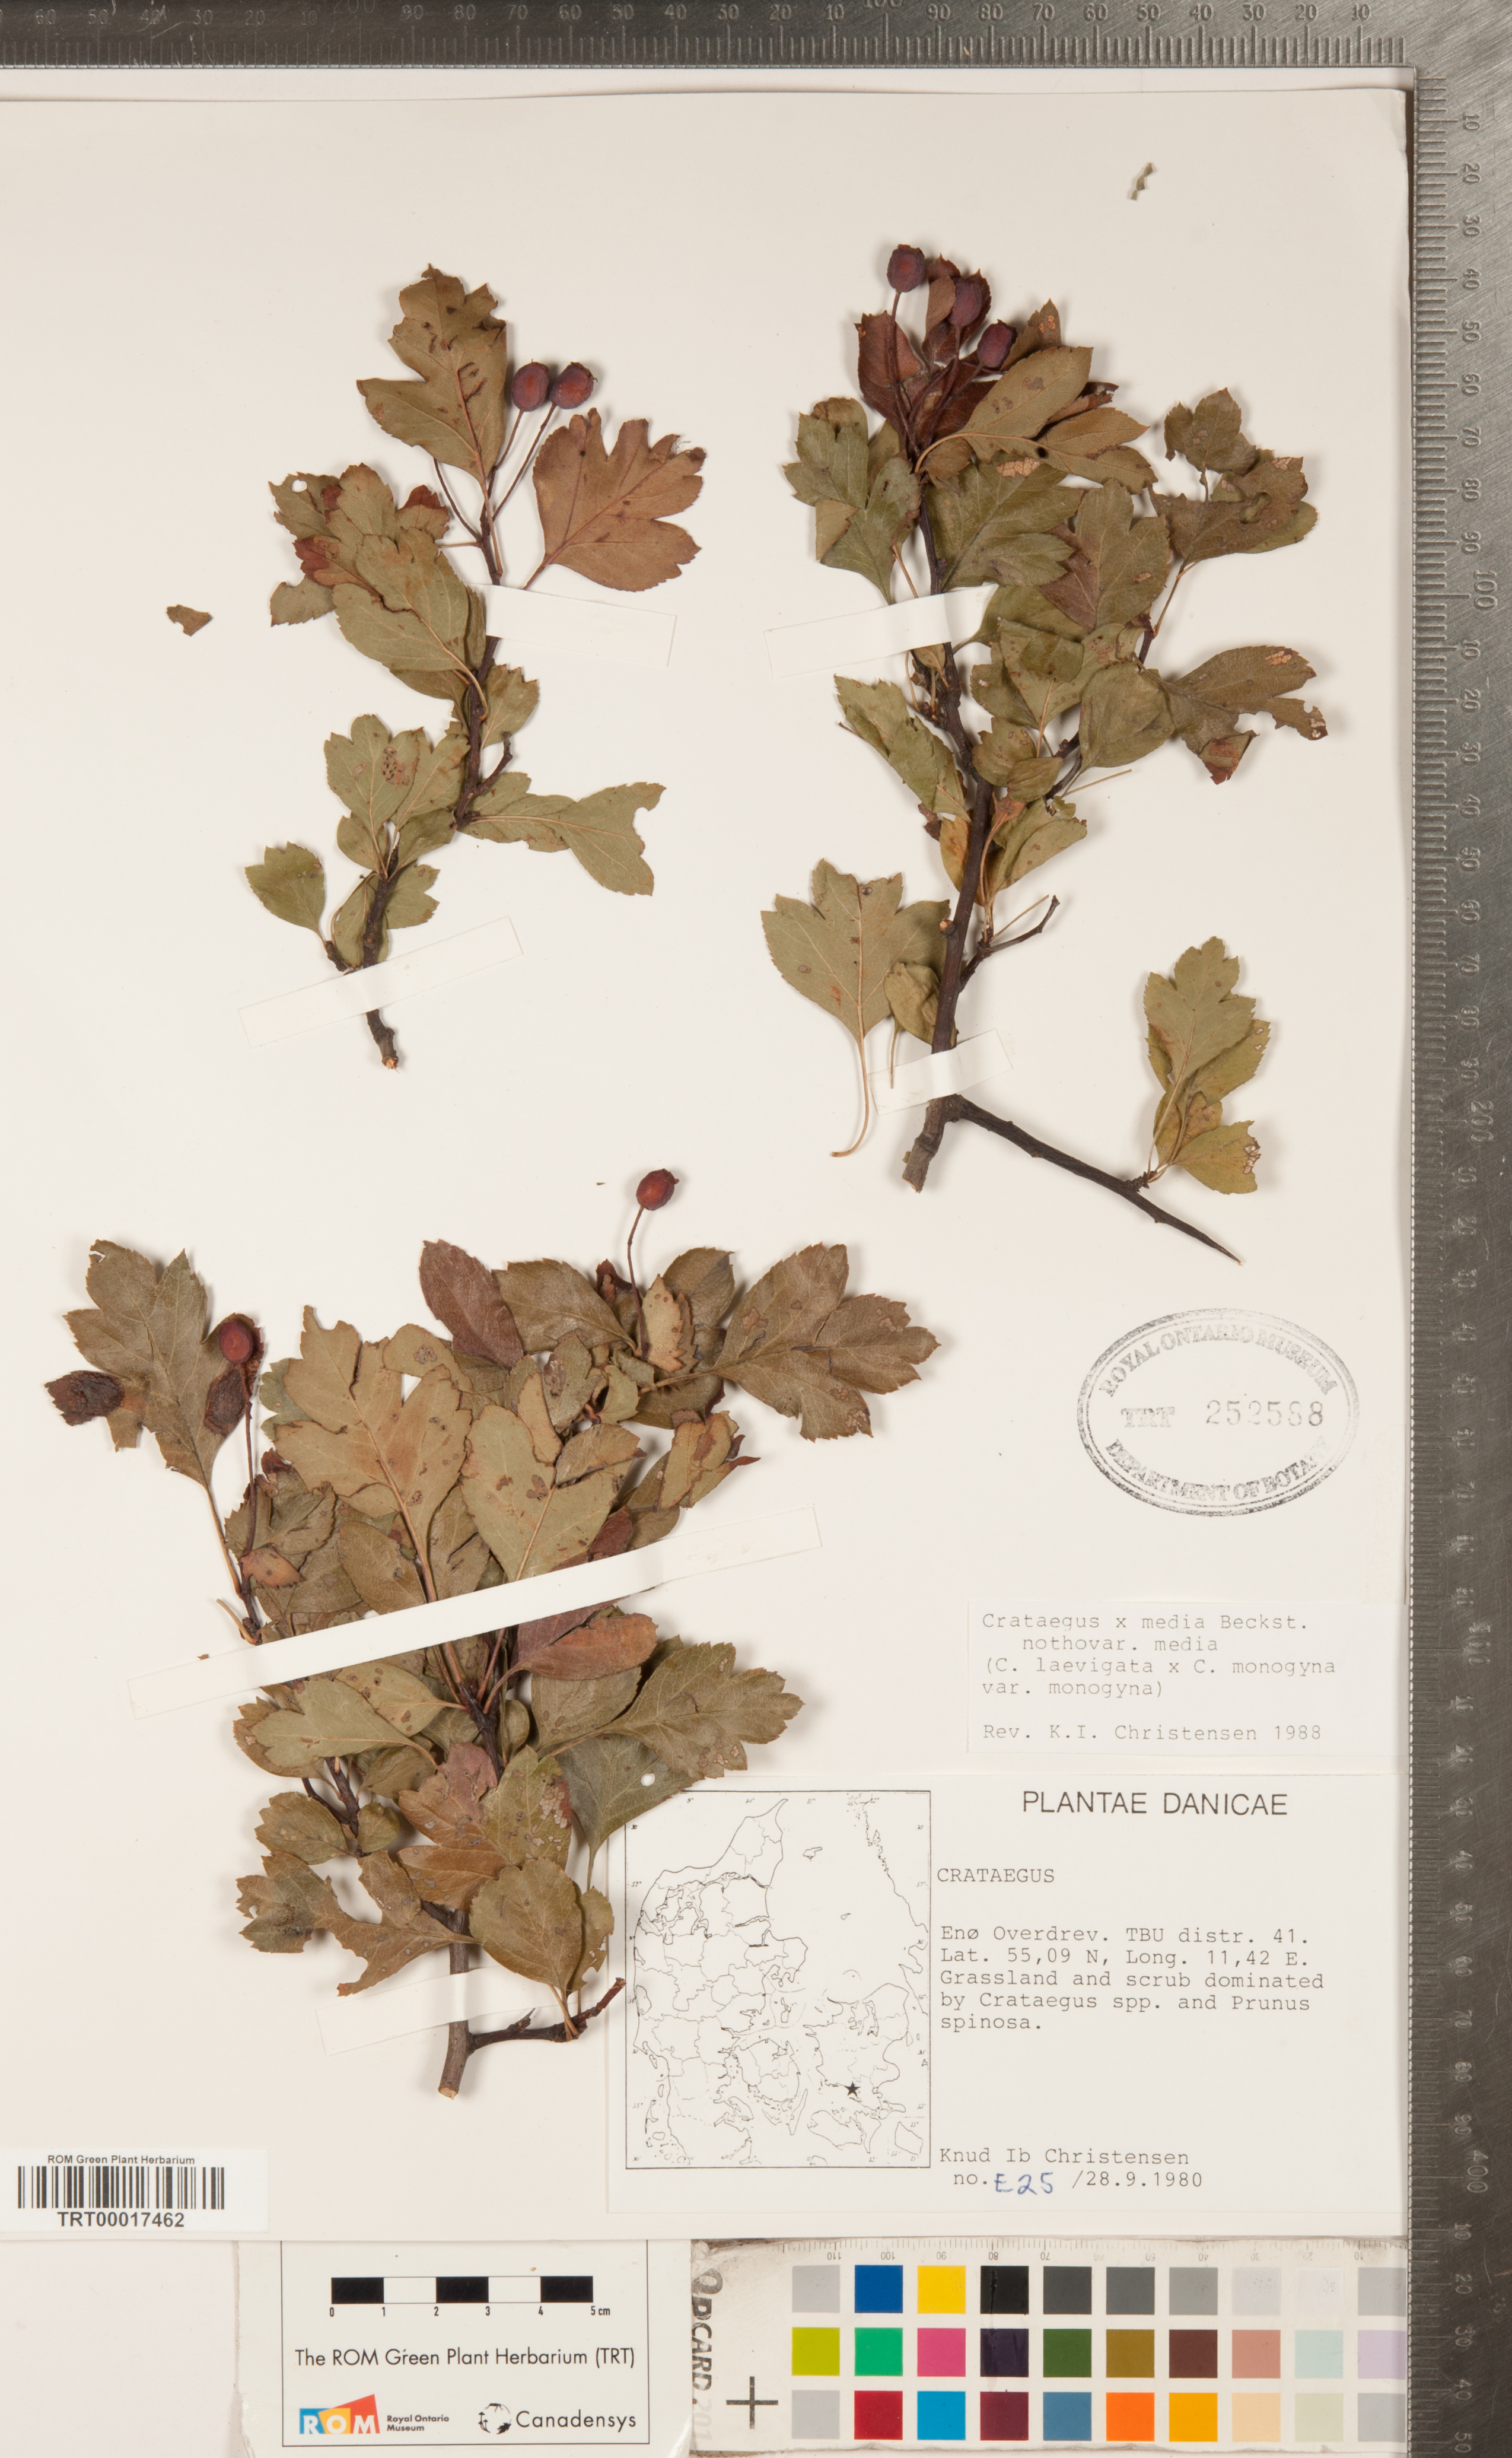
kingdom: Plantae
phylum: Tracheophyta
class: Magnoliopsida
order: Rosales
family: Rosaceae
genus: Crataegus
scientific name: Crataegus media
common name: Intermediate hawthorn
